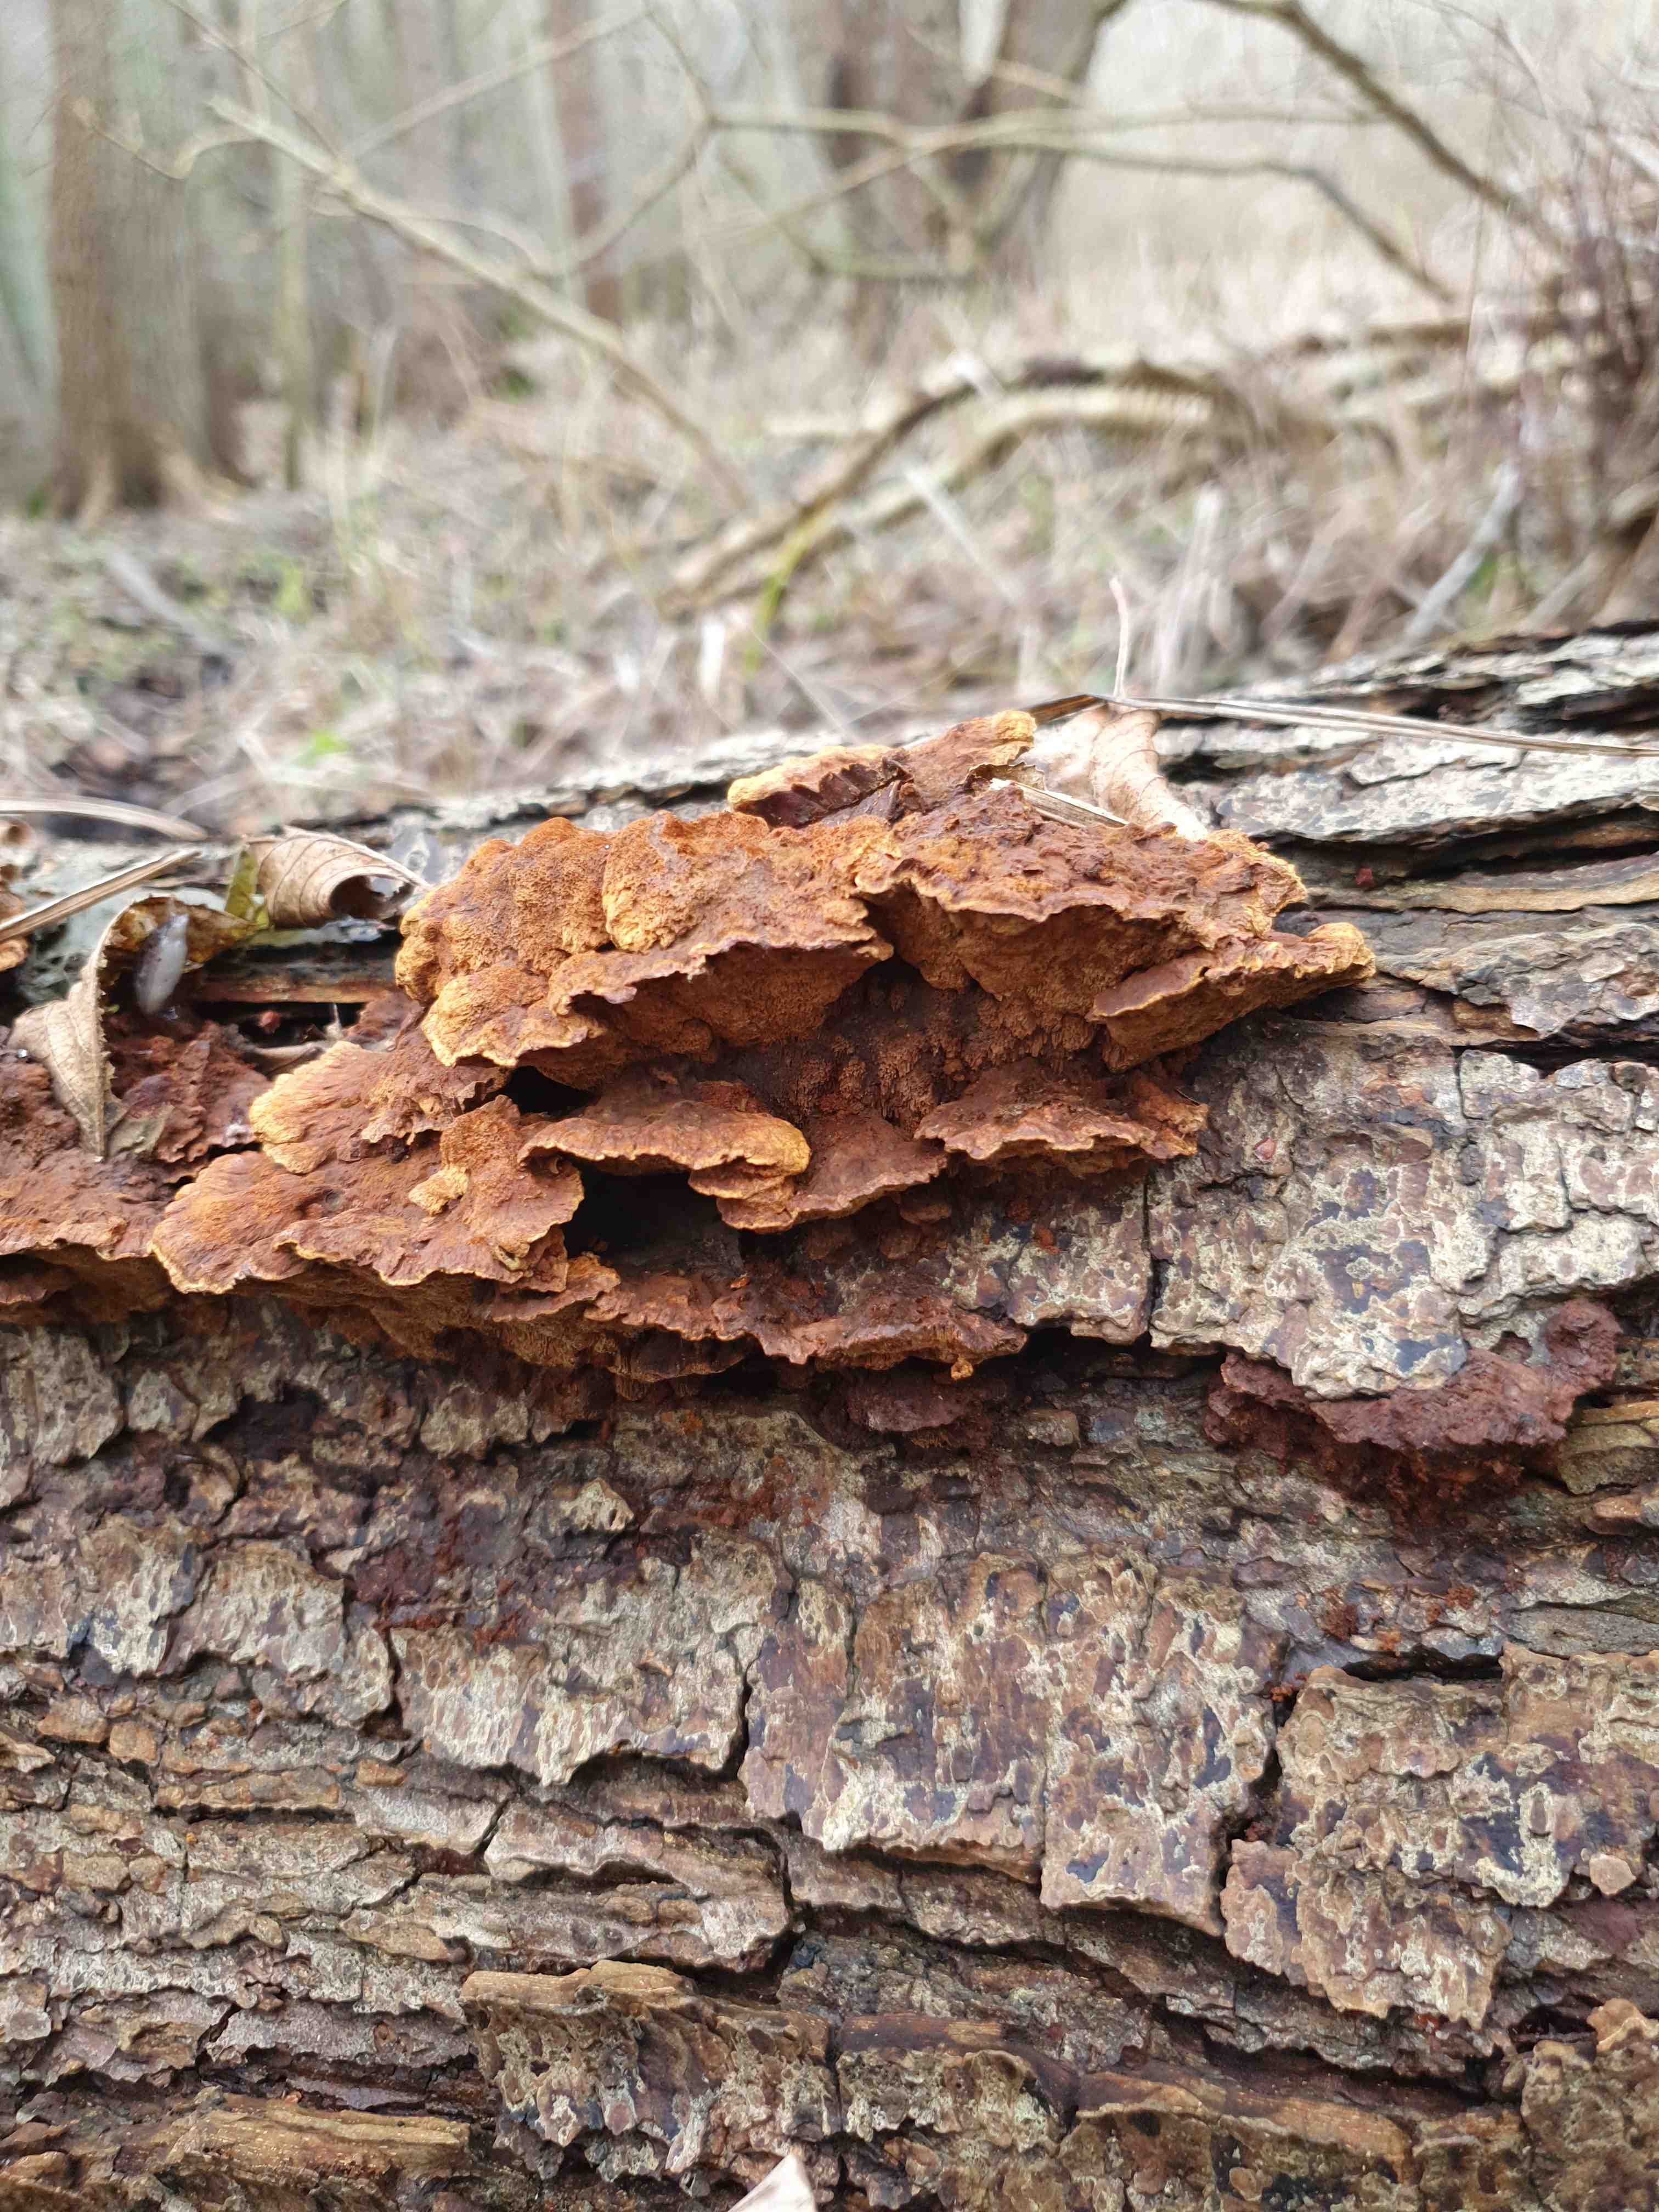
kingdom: Fungi
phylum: Basidiomycota
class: Agaricomycetes
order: Hymenochaetales
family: Hymenochaetaceae
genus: Xanthoporia
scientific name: Xanthoporia radiata
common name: elle-spejlporesvamp
